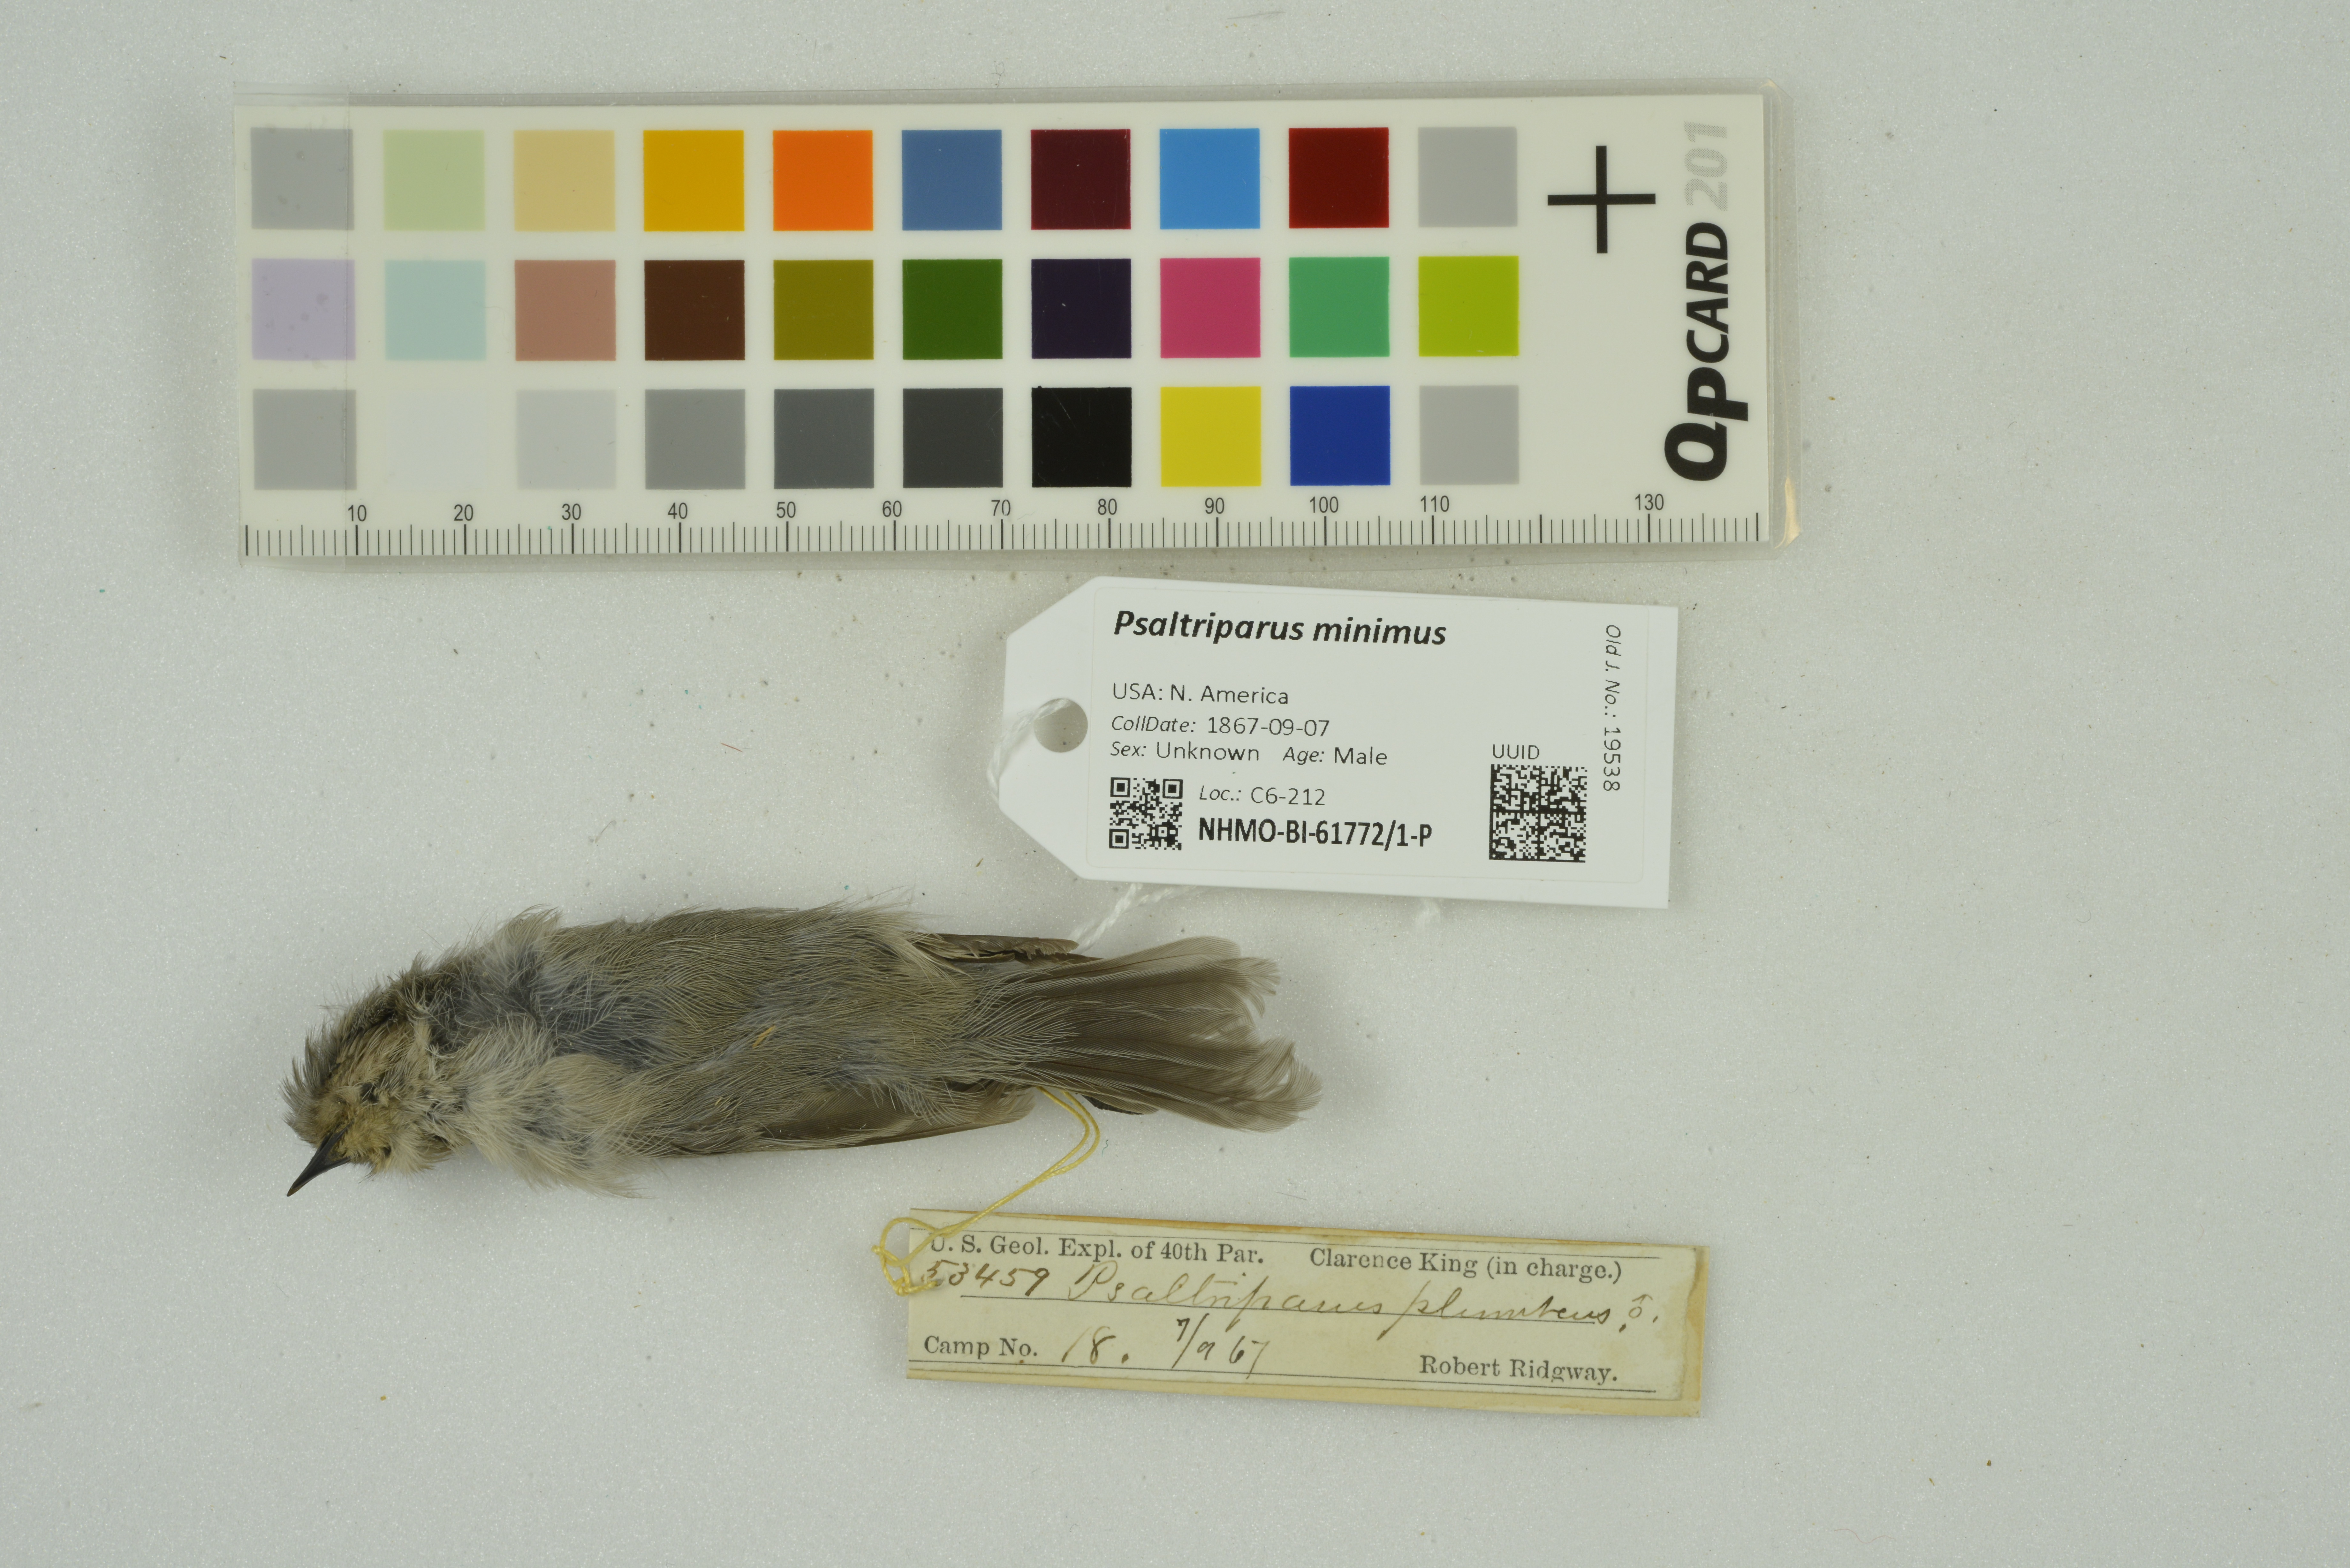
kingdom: Animalia
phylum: Chordata
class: Aves
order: Passeriformes
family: Aegithalidae
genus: Psaltriparus
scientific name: Psaltriparus minimus
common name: American bushtit
